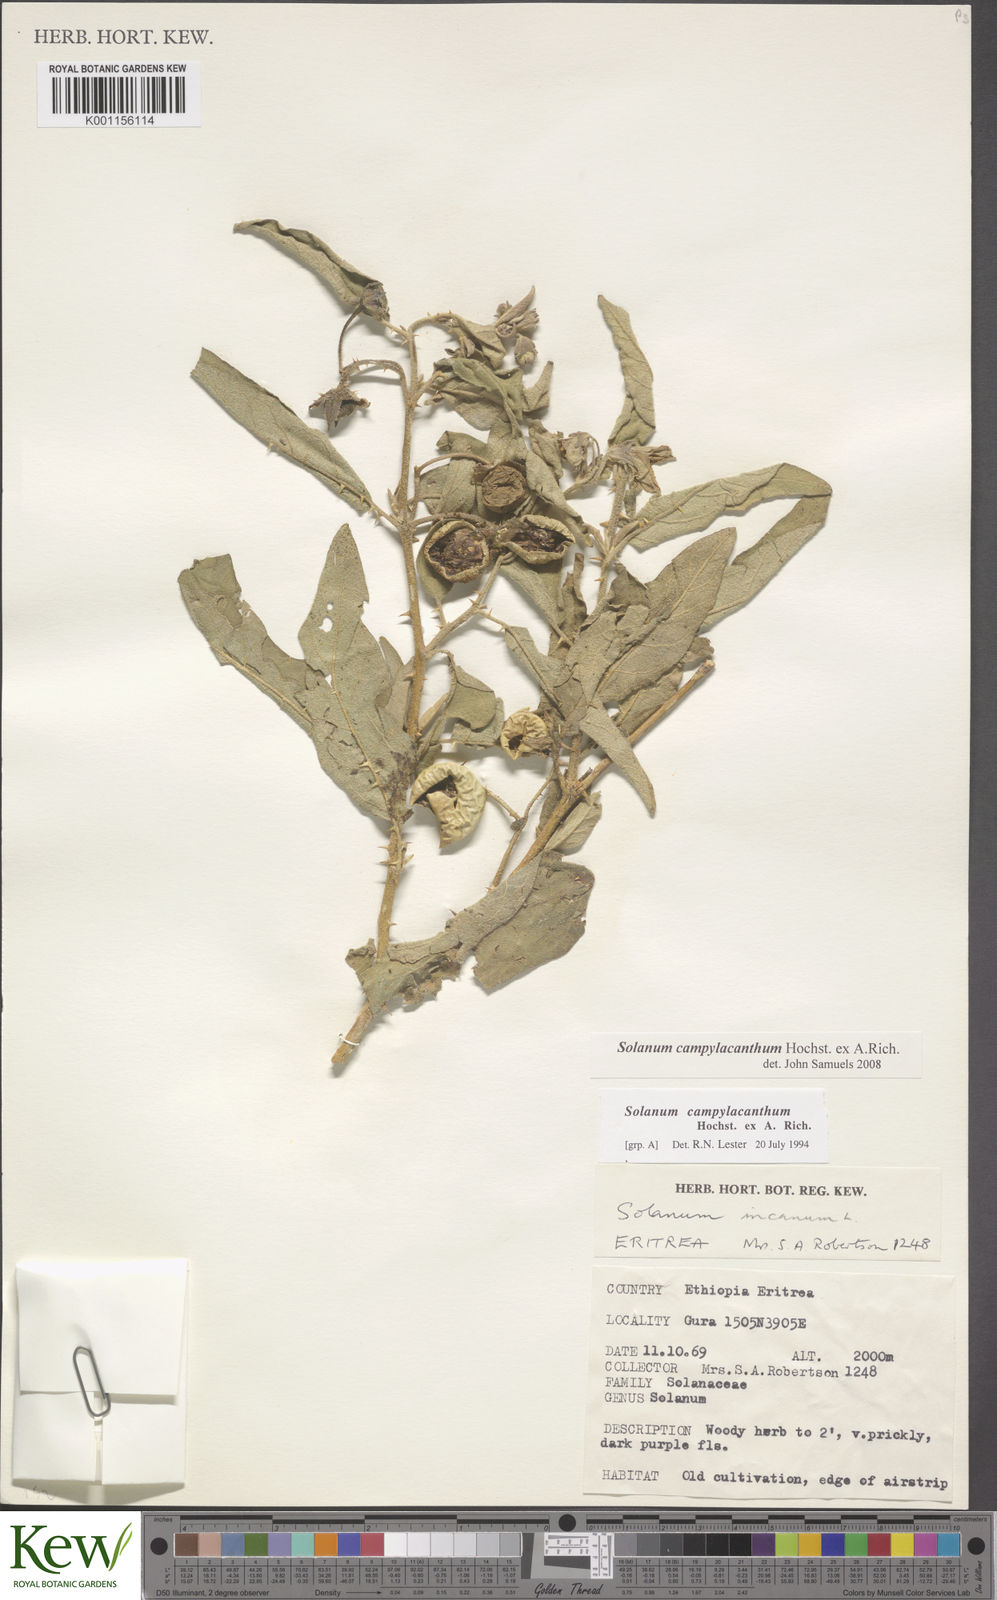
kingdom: Plantae
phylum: Tracheophyta
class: Magnoliopsida
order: Solanales
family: Solanaceae
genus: Solanum
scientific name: Solanum campylacanthum
